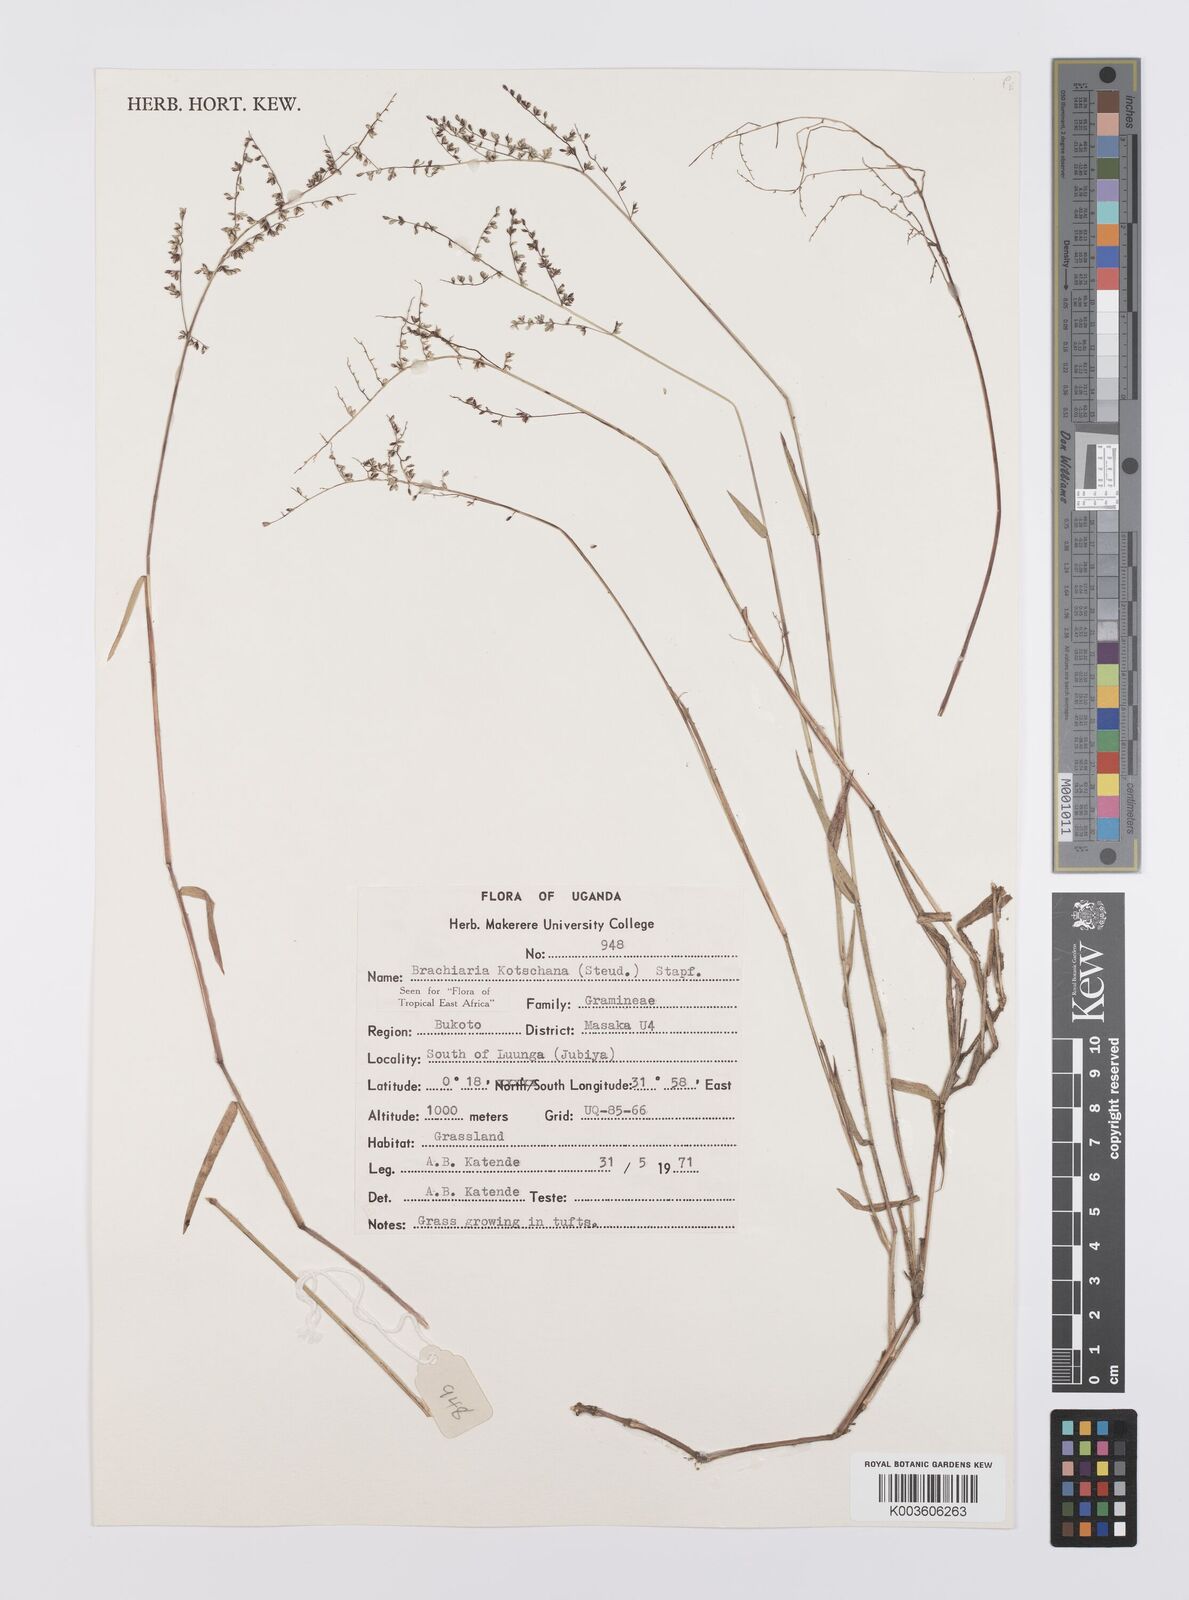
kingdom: Plantae
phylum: Tracheophyta
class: Liliopsida
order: Poales
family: Poaceae
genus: Urochloa
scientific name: Urochloa comata
